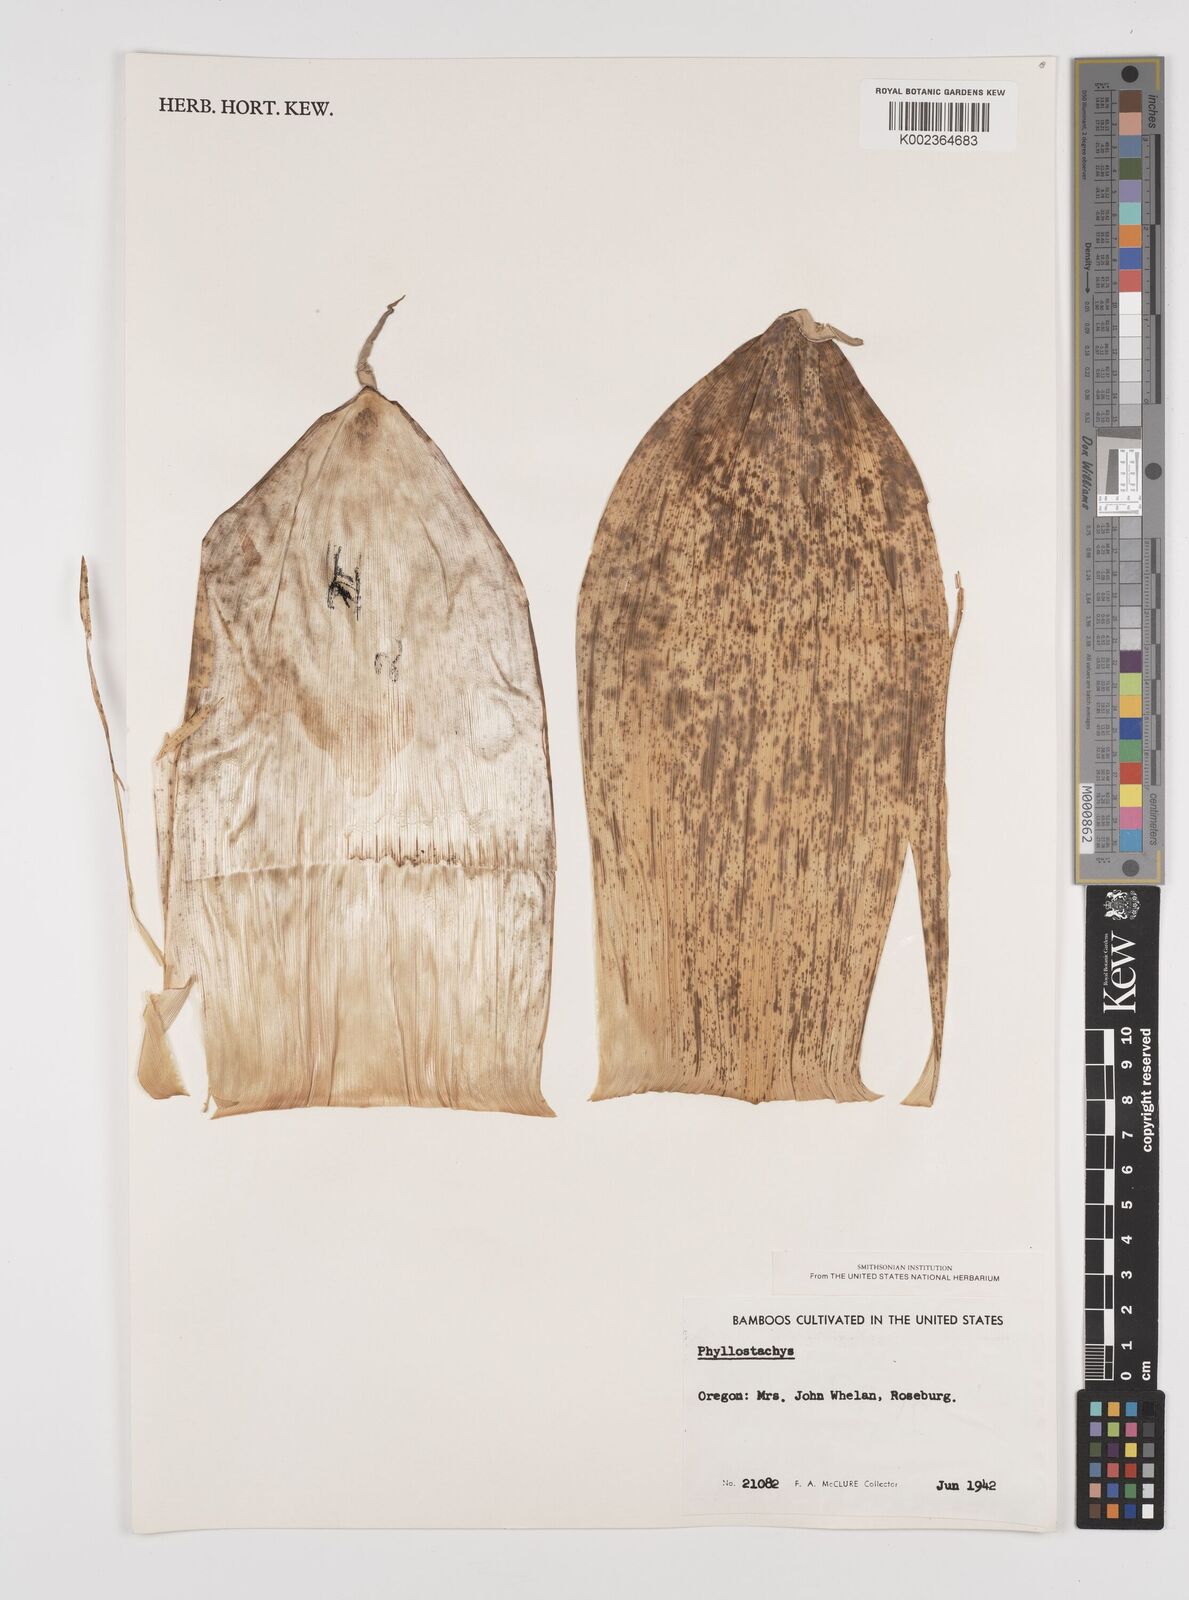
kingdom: Plantae
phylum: Tracheophyta
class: Liliopsida
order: Poales
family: Poaceae
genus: Phyllostachys
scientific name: Phyllostachys
